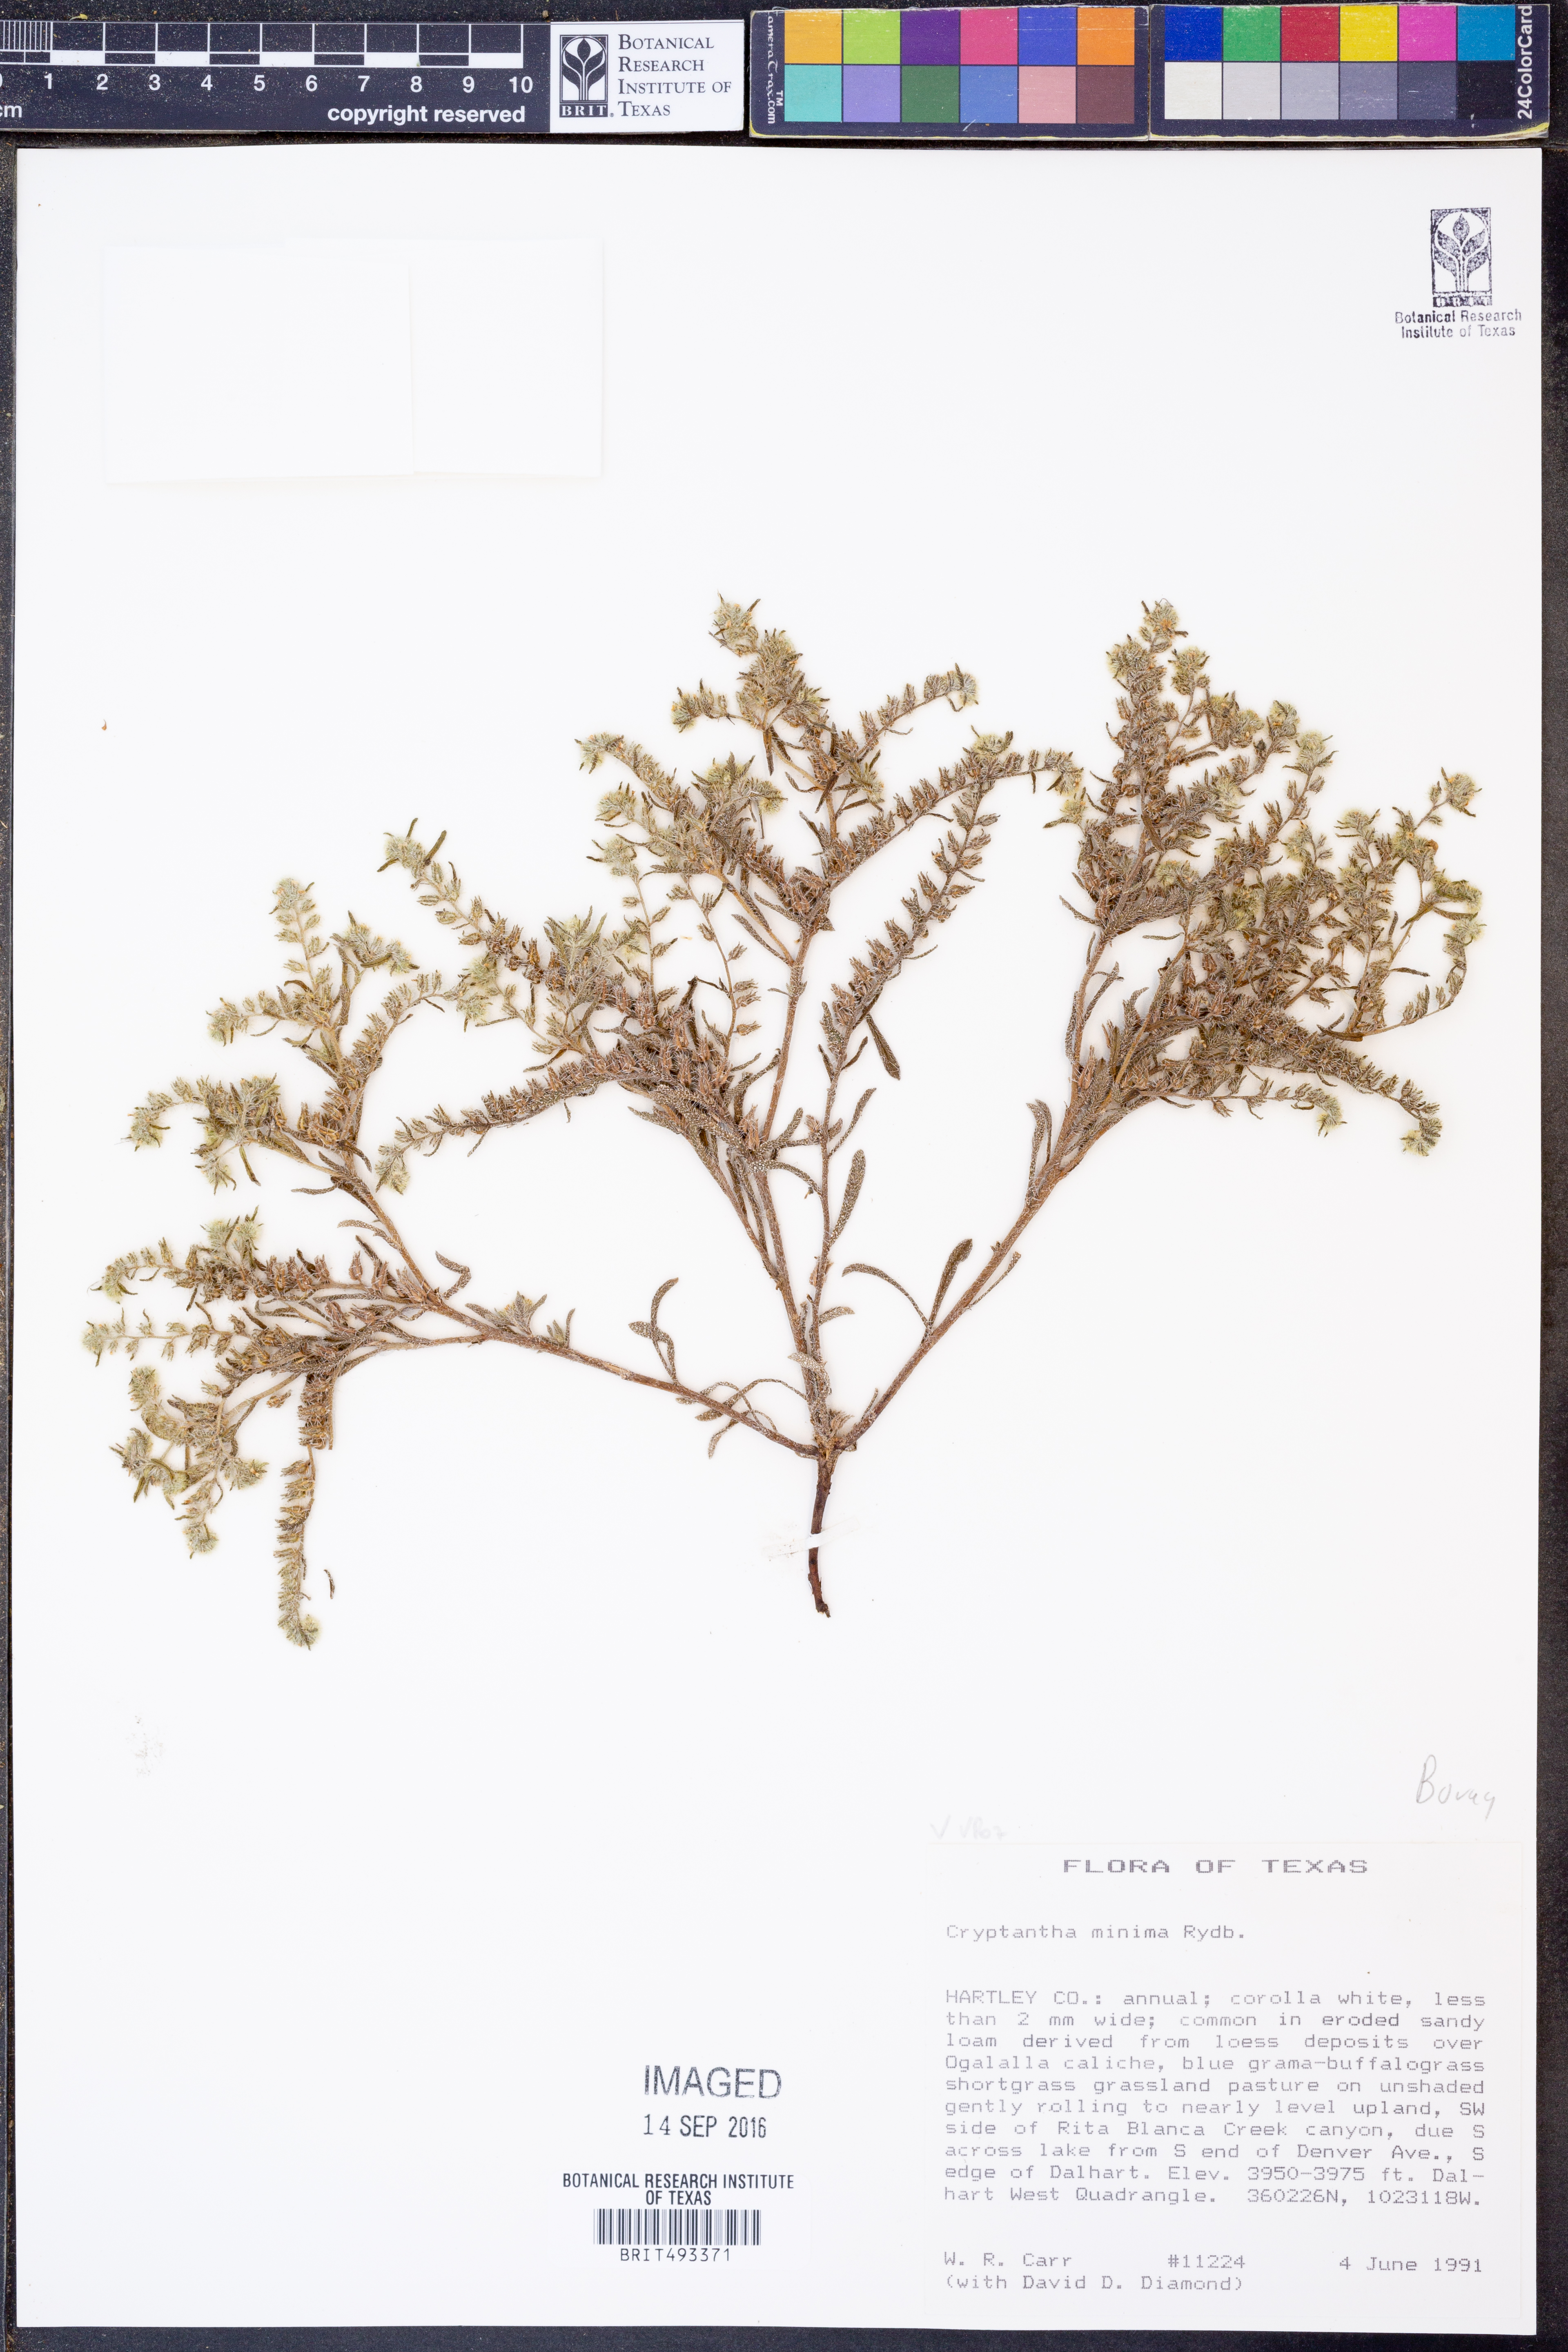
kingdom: Plantae
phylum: Tracheophyta
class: Magnoliopsida
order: Boraginales
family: Boraginaceae
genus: Cryptantha
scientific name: Cryptantha minima
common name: Little cat's-eye
